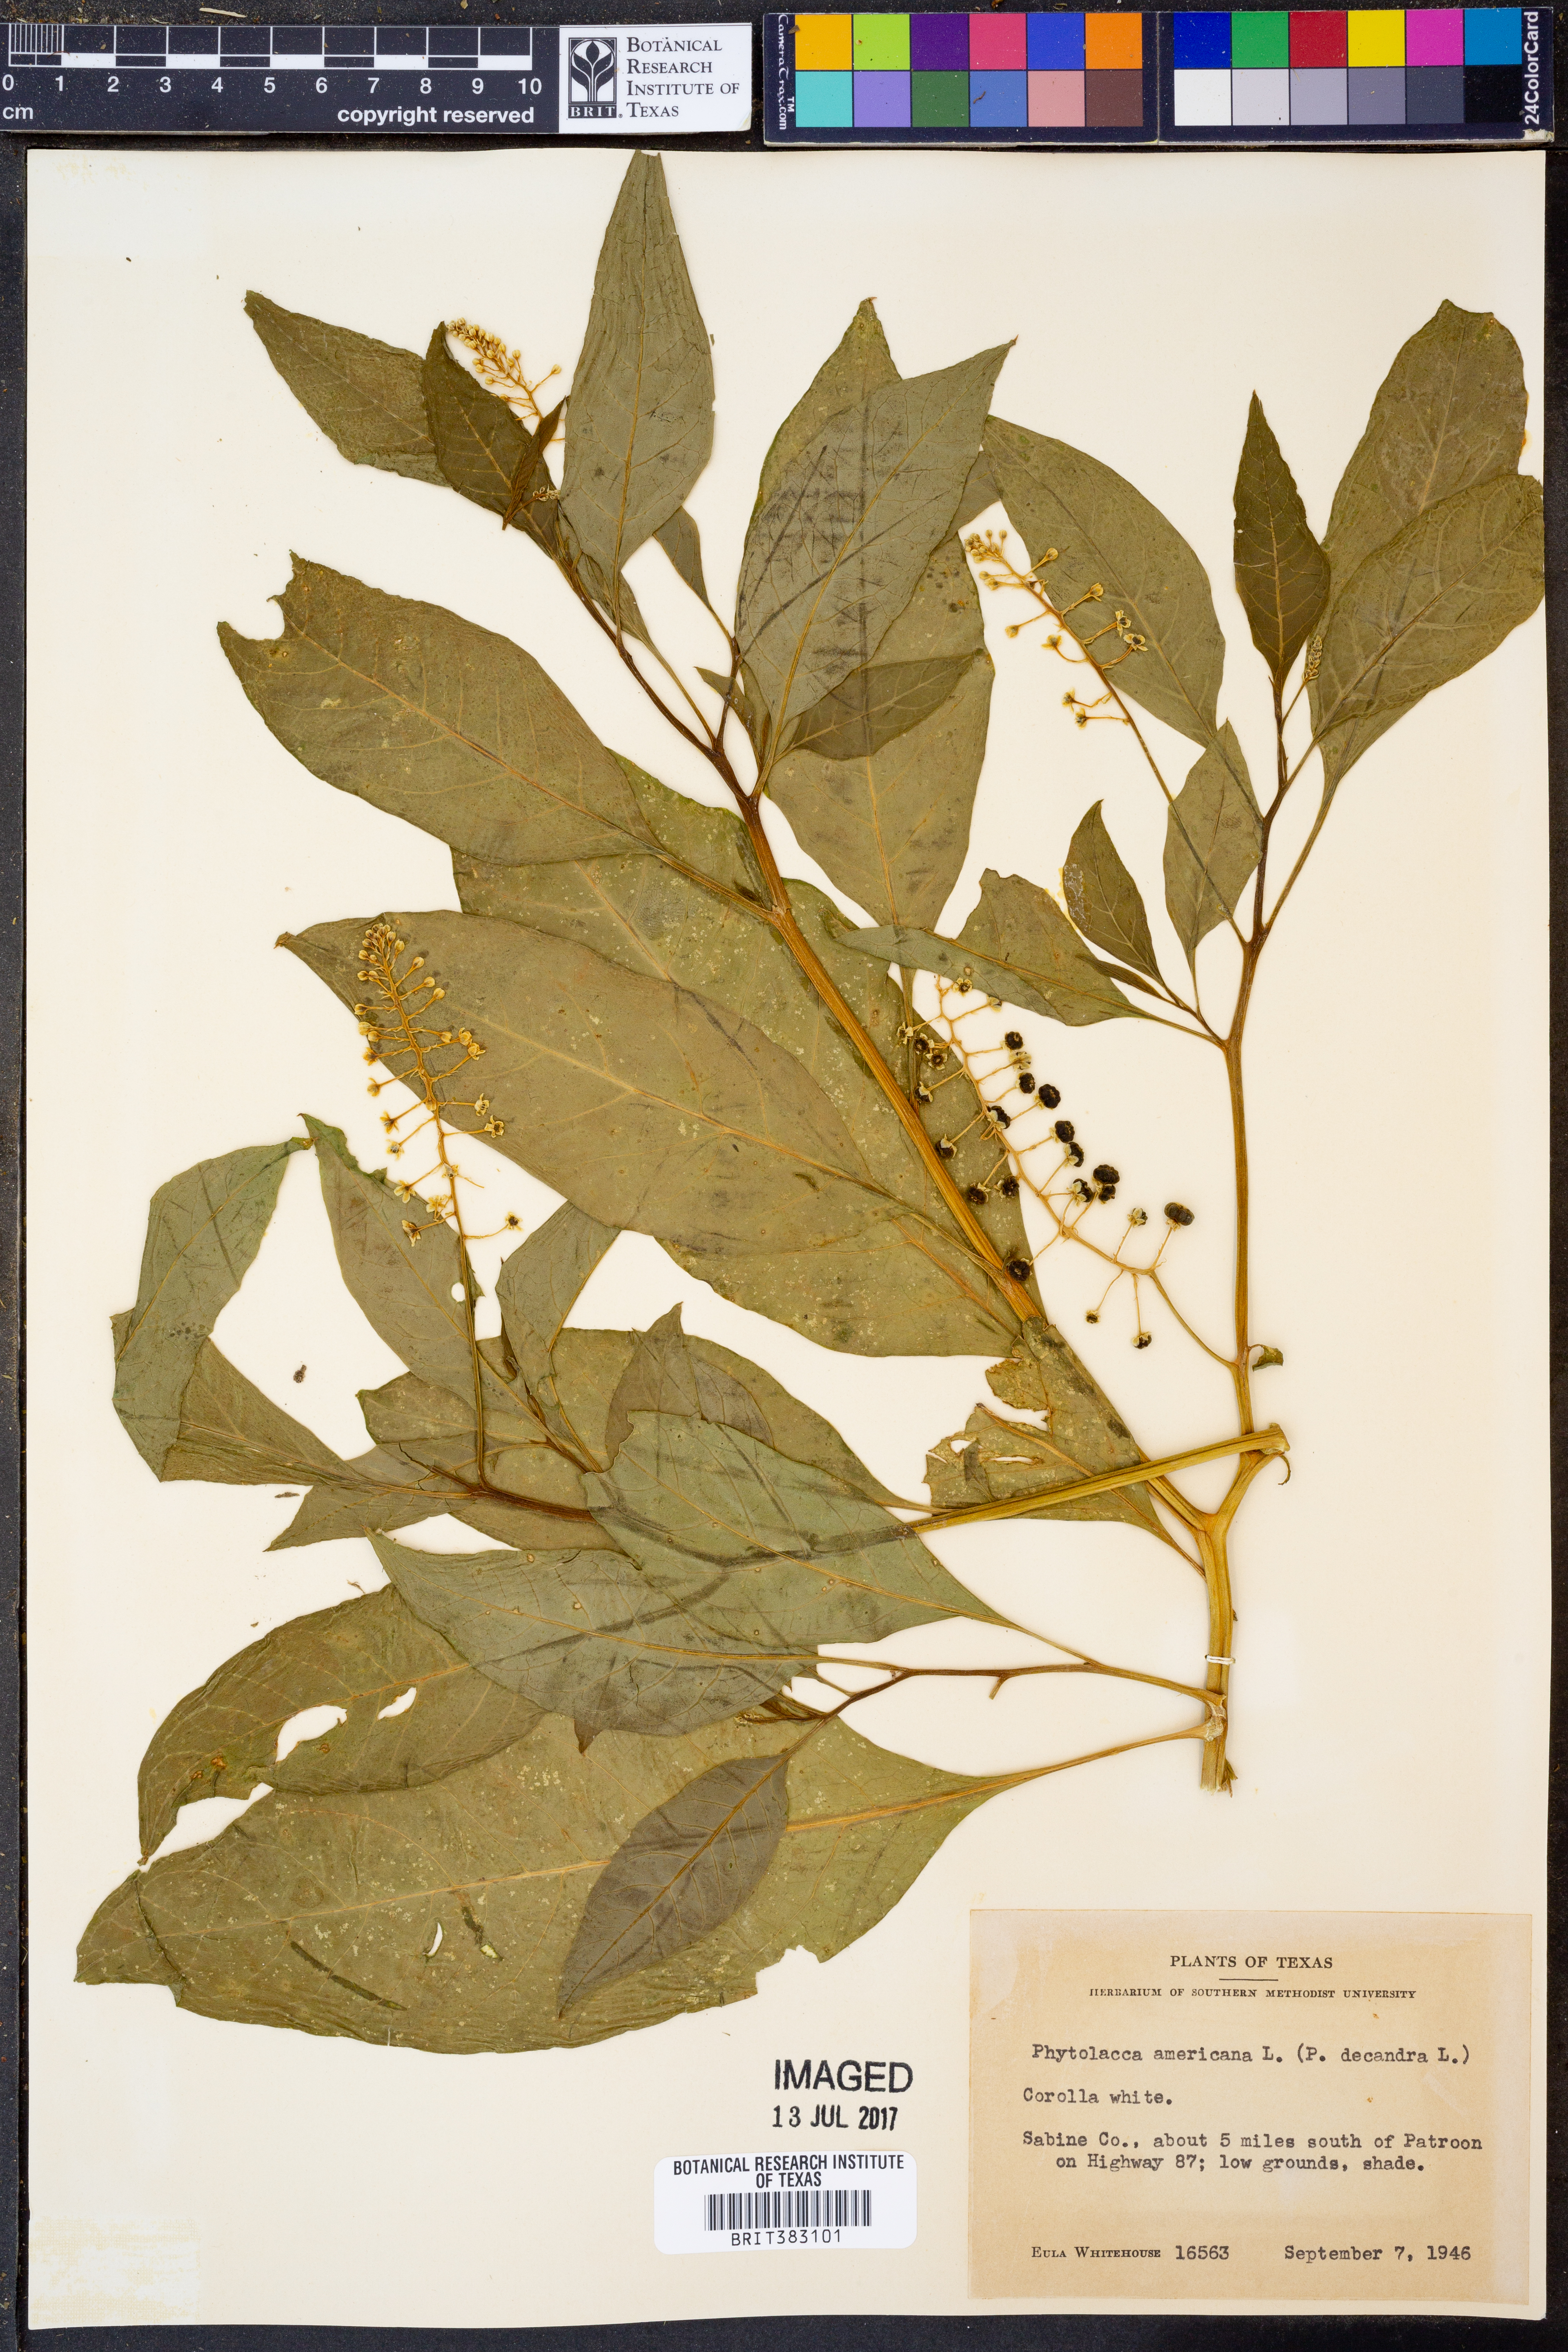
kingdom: Plantae
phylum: Tracheophyta
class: Magnoliopsida
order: Caryophyllales
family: Phytolaccaceae
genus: Phytolacca
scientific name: Phytolacca americana
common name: American pokeweed
